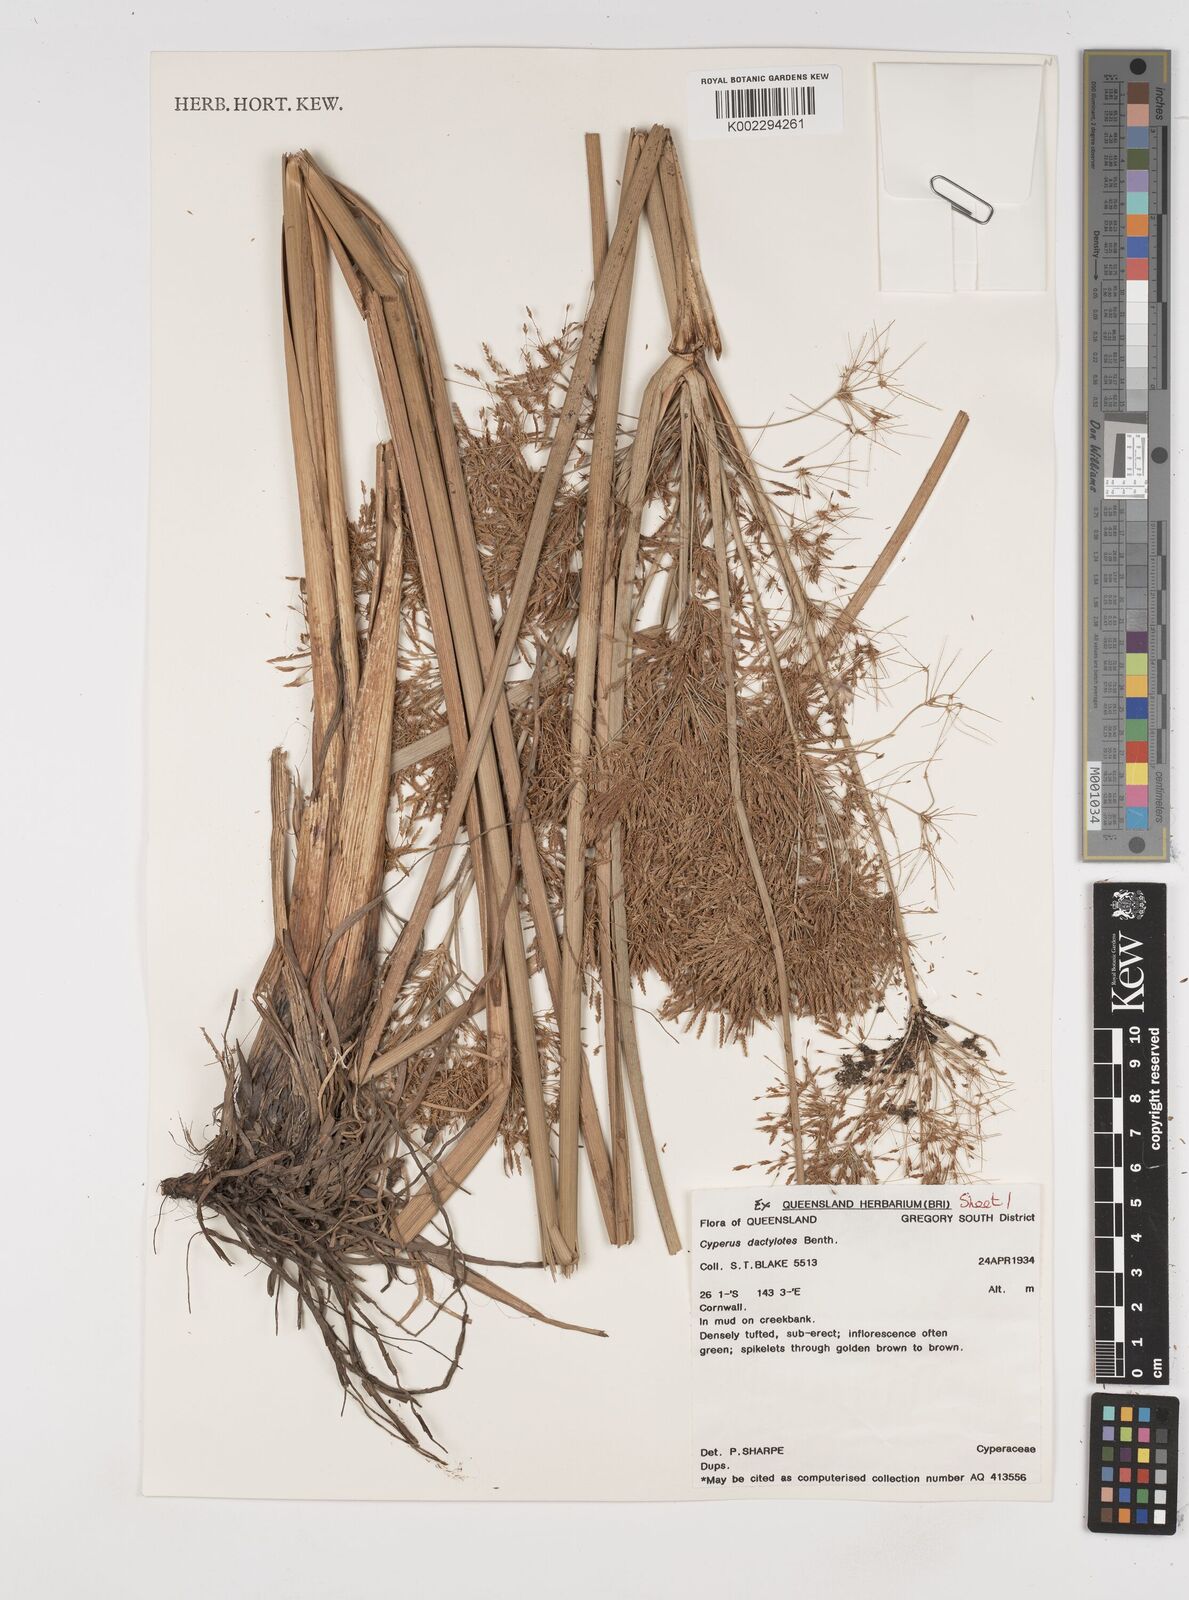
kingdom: Plantae
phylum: Tracheophyta
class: Liliopsida
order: Poales
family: Cyperaceae
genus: Cyperus
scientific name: Cyperus dactylotes
